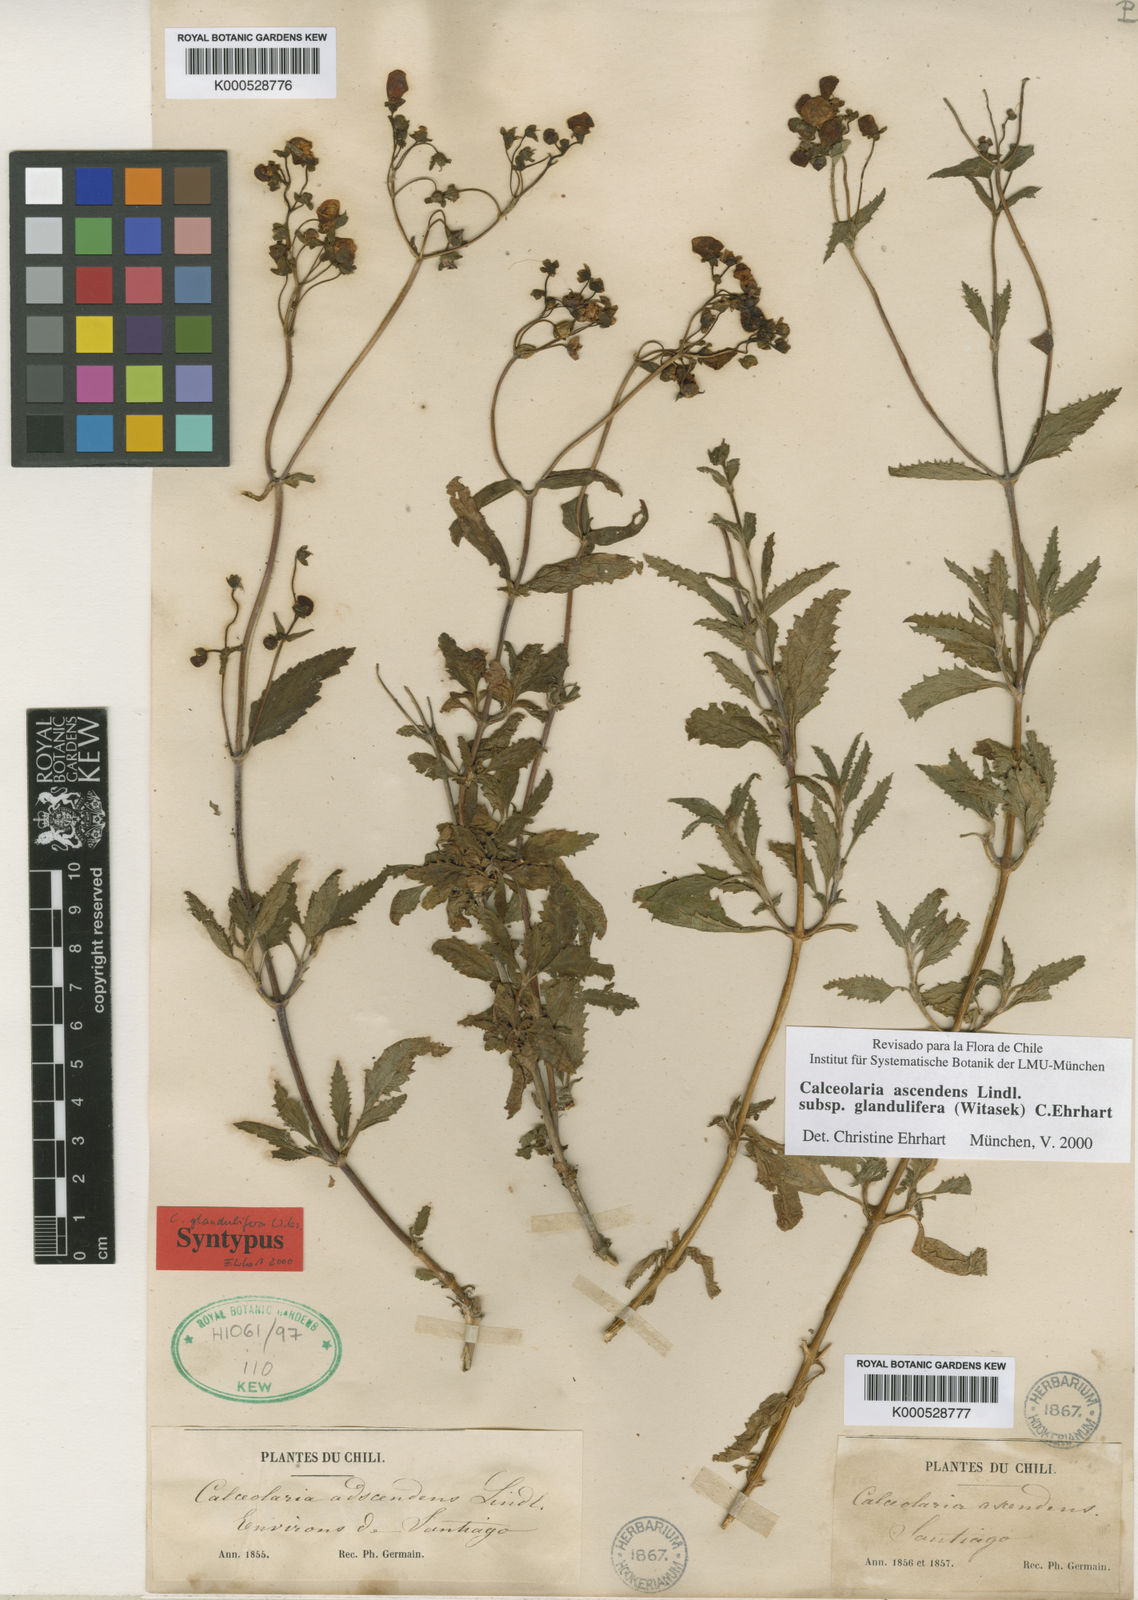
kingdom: Plantae
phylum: Tracheophyta
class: Magnoliopsida
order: Lamiales
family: Calceolariaceae
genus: Calceolaria
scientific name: Calceolaria ascendens
